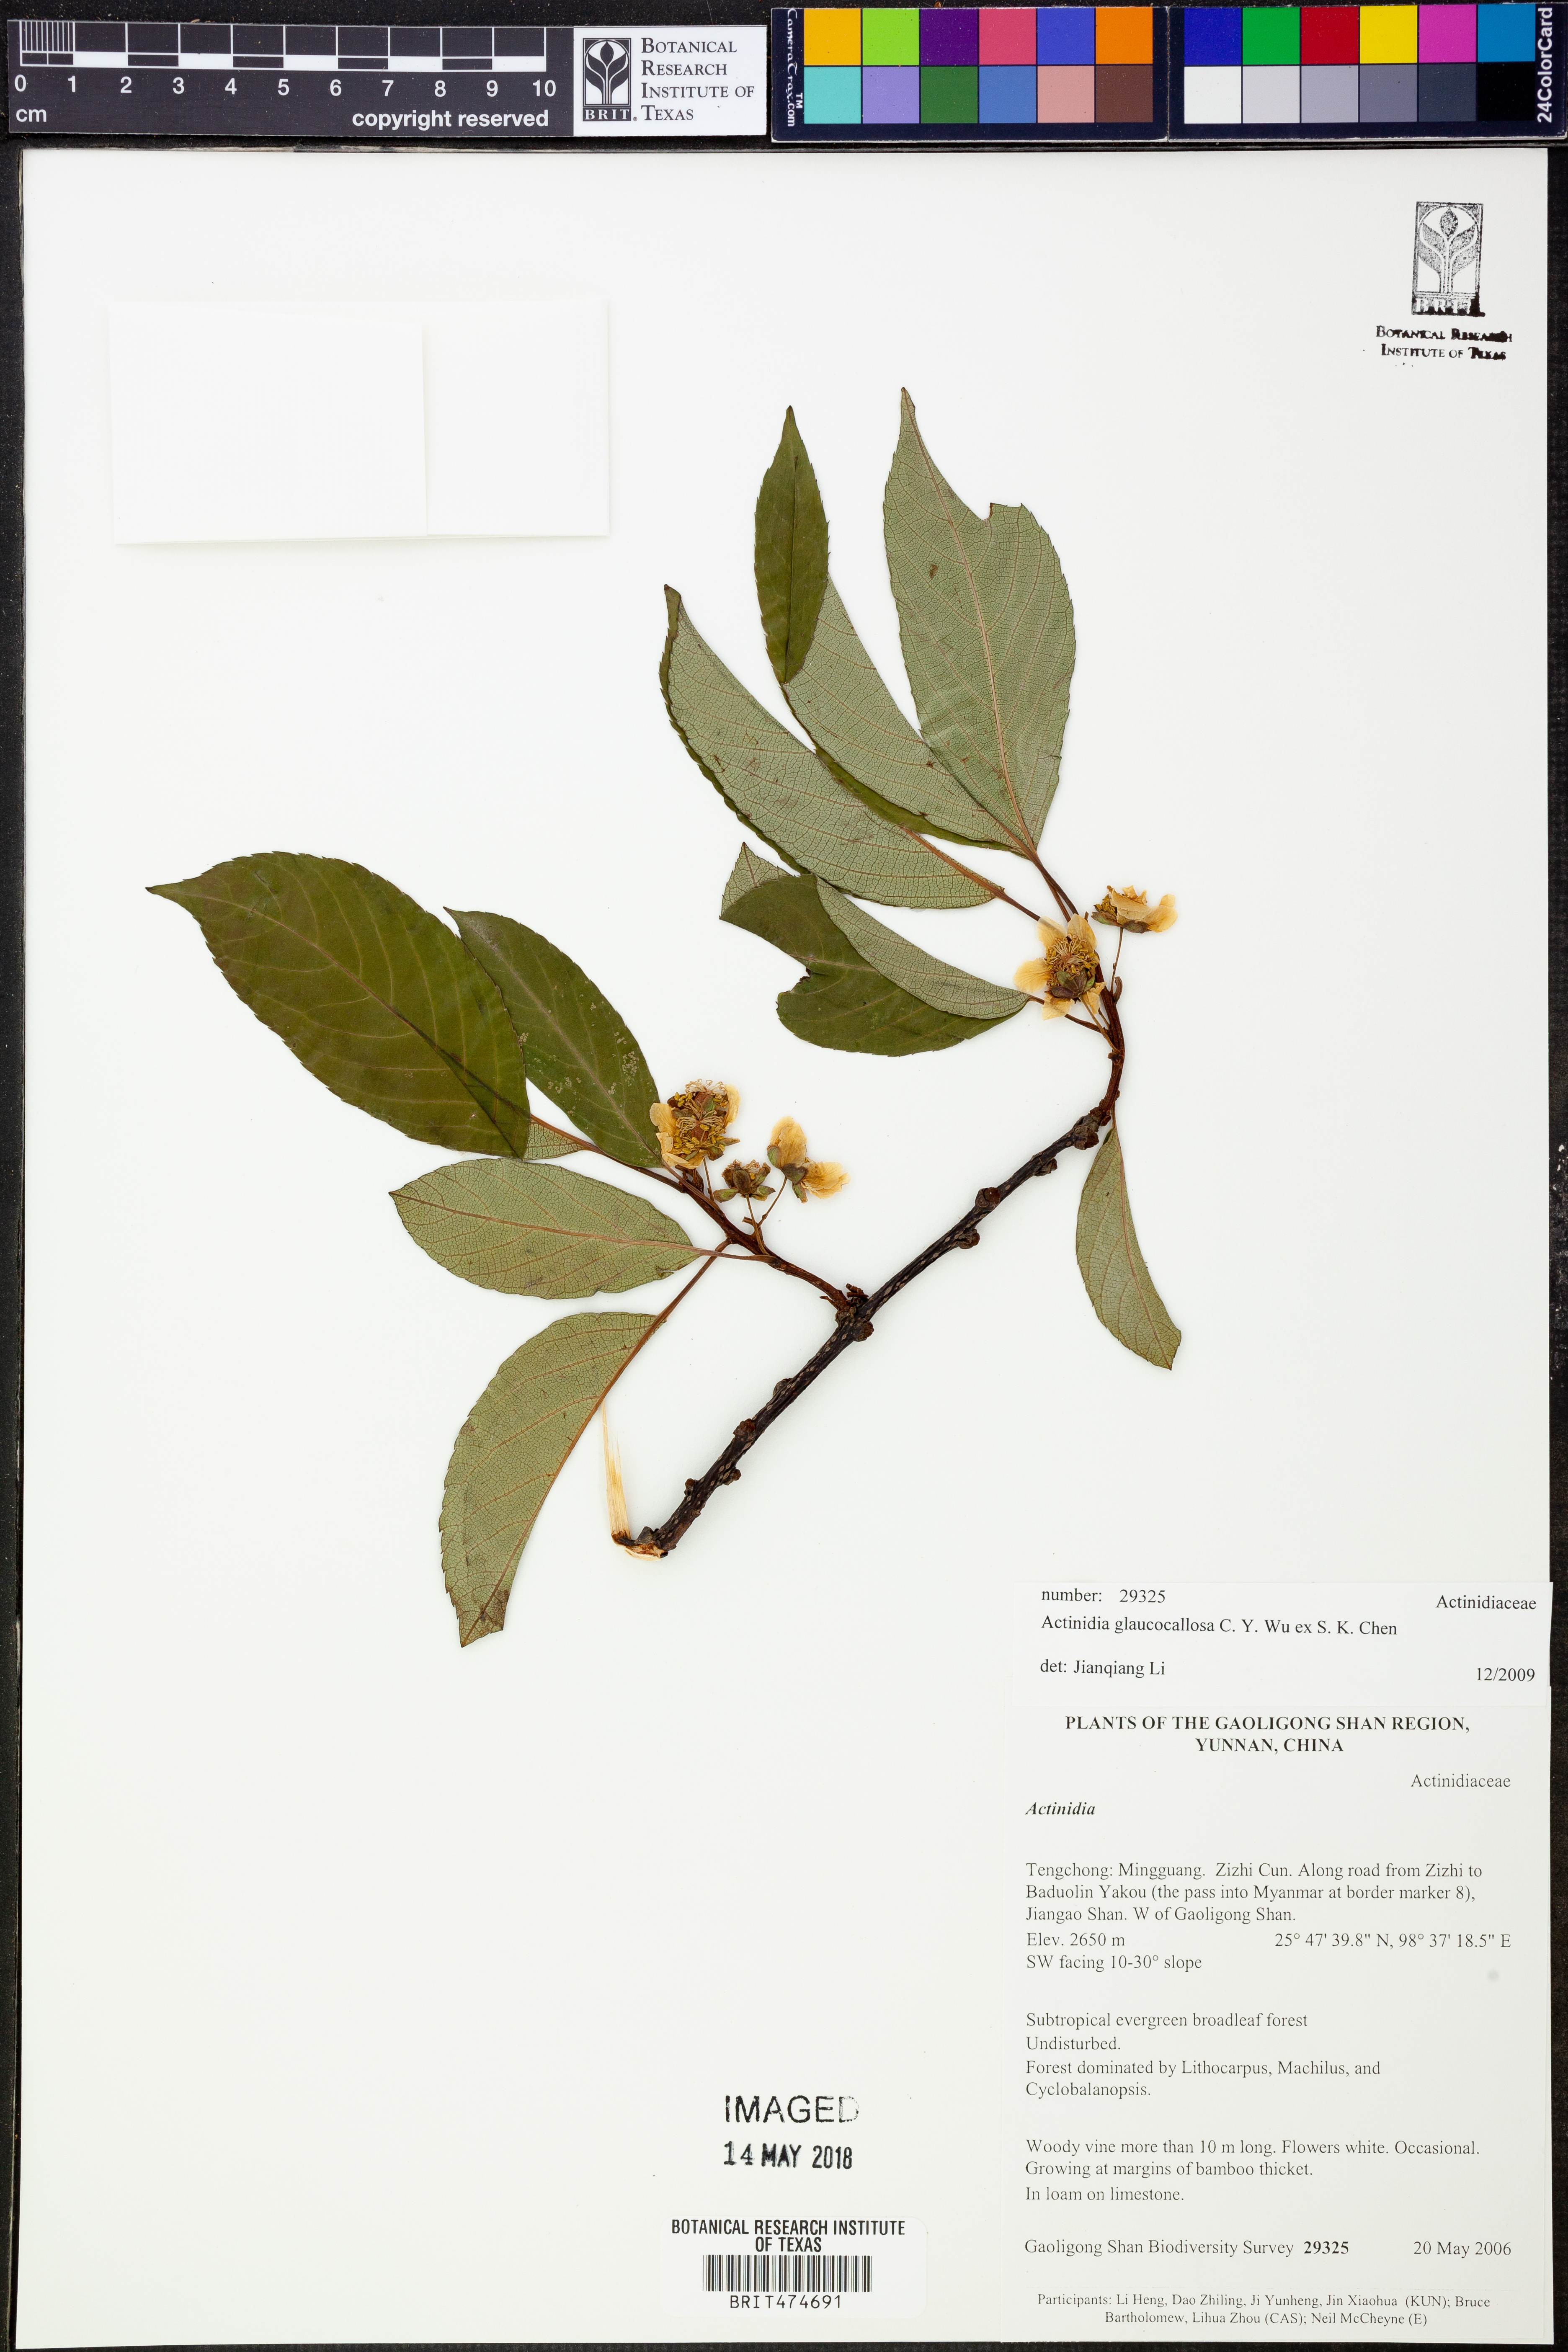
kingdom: Plantae
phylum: Tracheophyta
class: Magnoliopsida
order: Ericales
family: Actinidiaceae
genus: Actinidia
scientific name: Actinidia glaucocallosa
